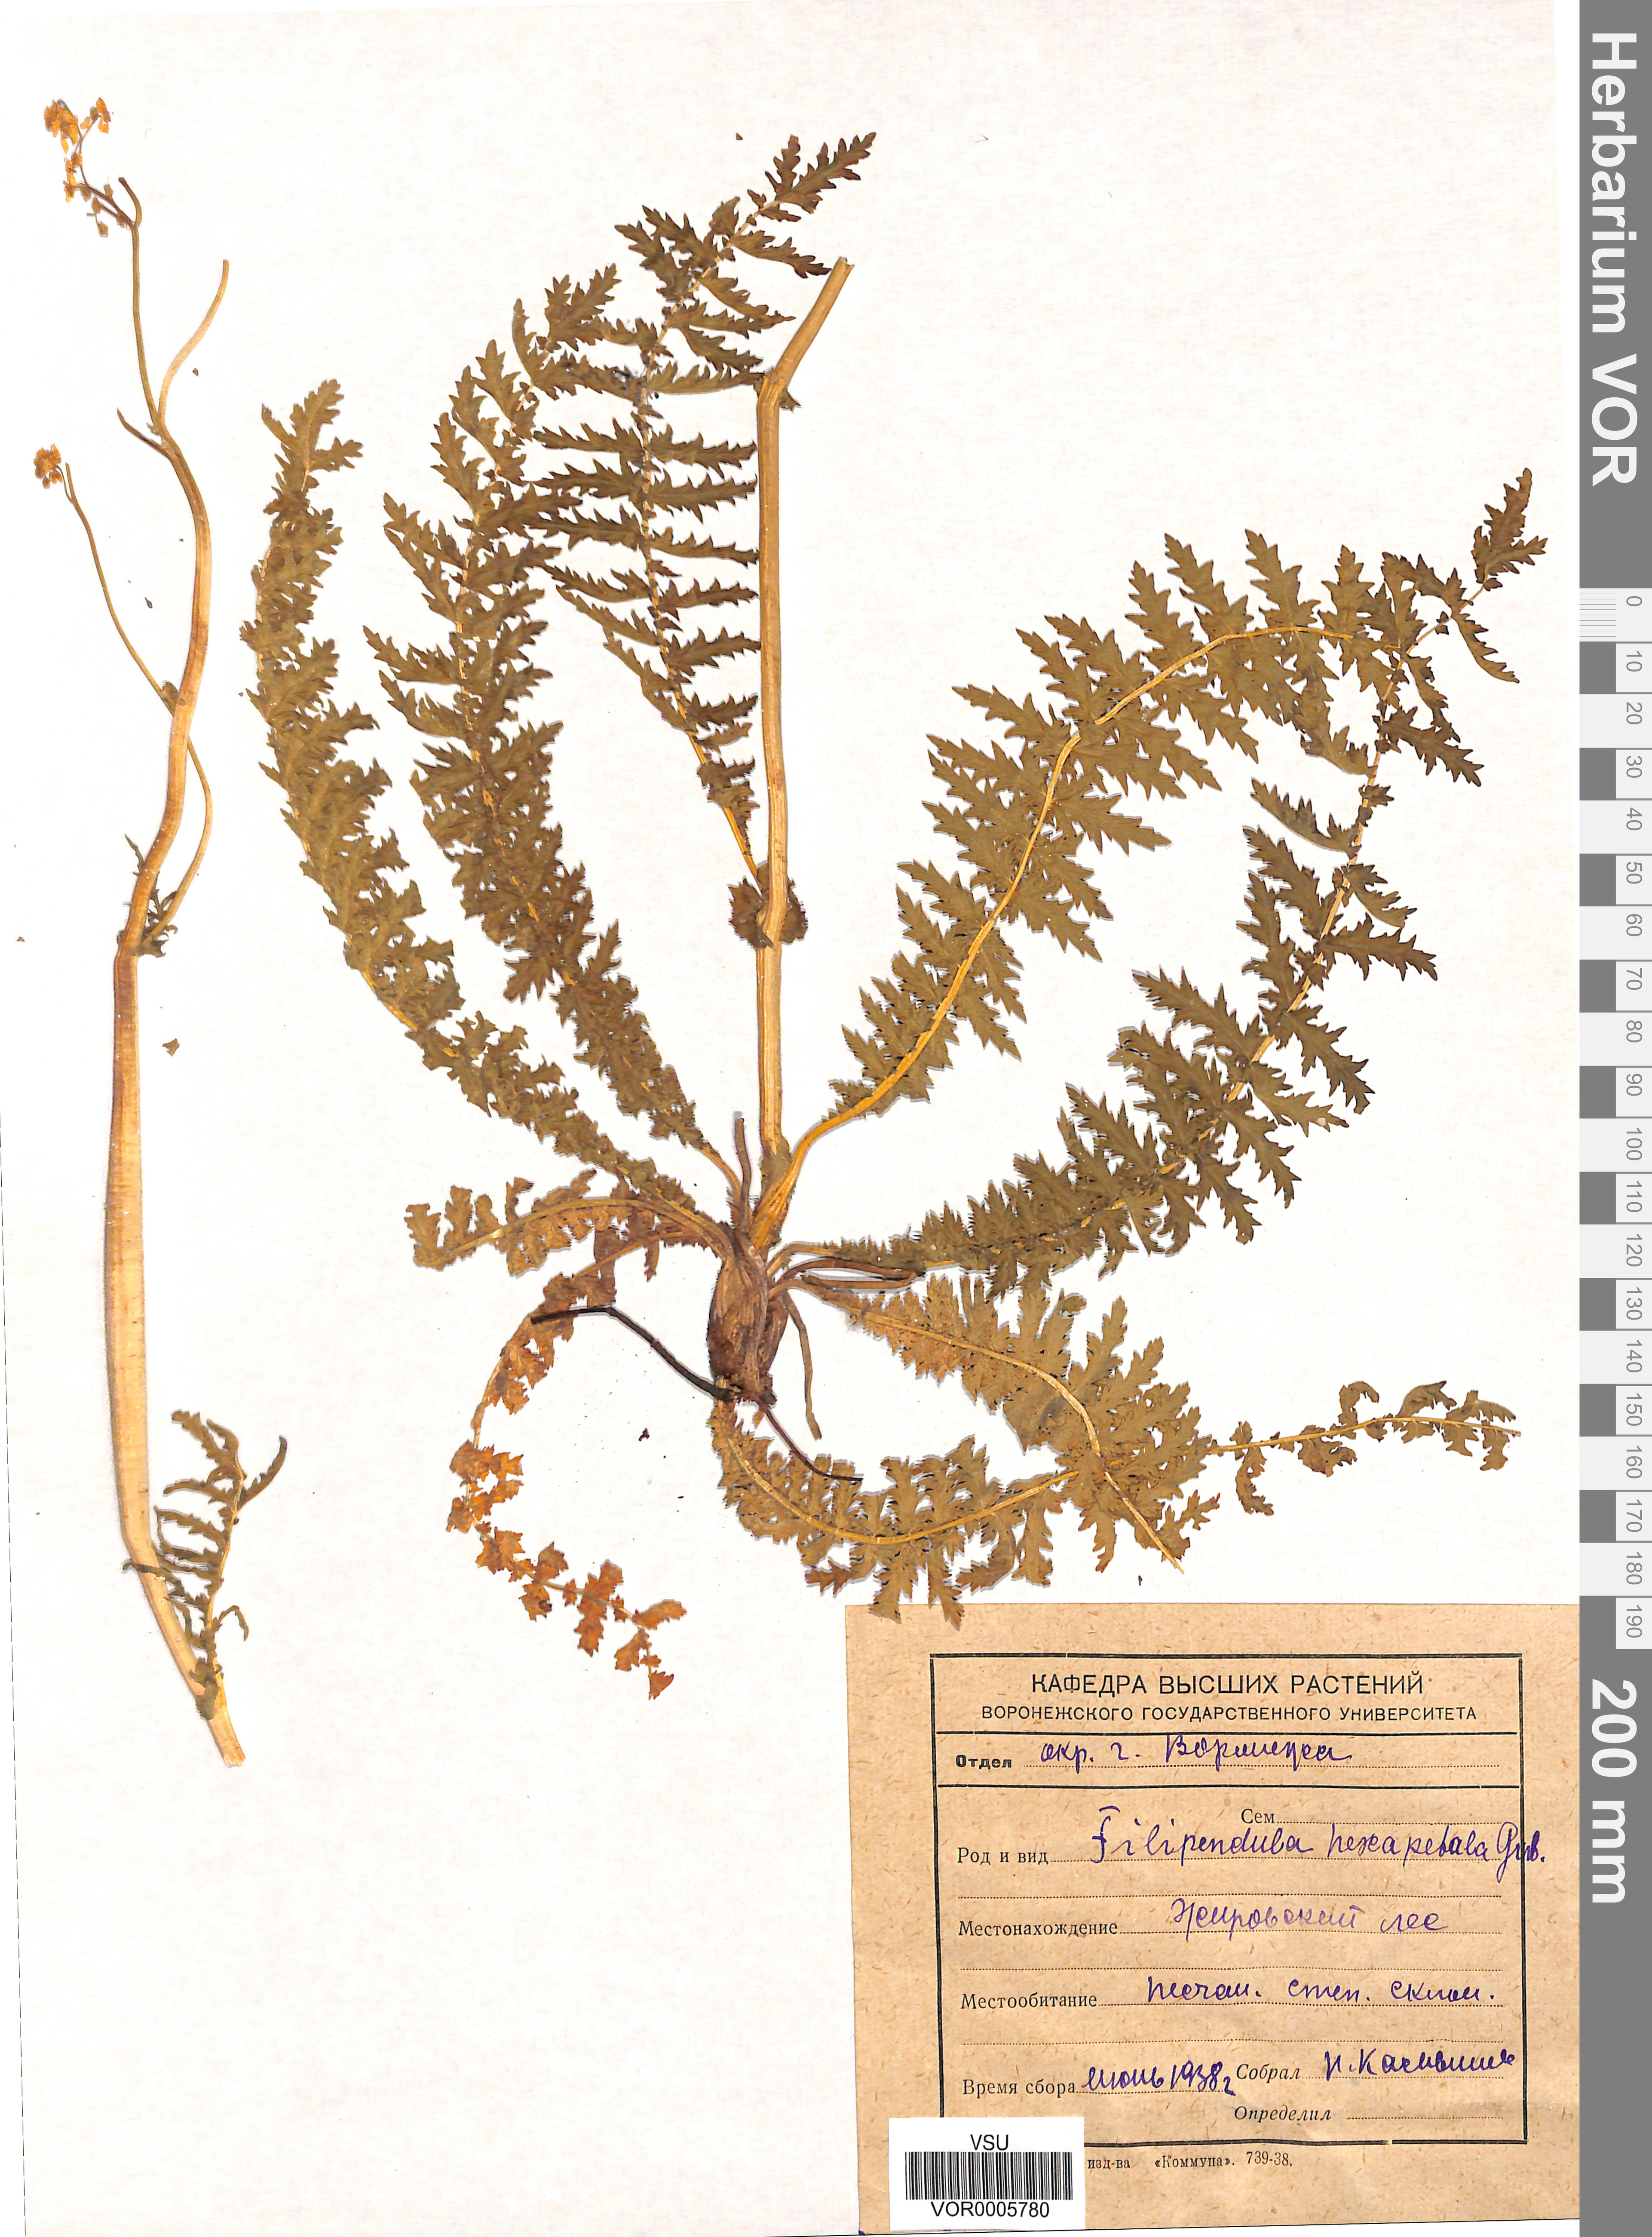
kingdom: Plantae
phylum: Tracheophyta
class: Magnoliopsida
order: Rosales
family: Rosaceae
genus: Filipendula
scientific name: Filipendula vulgaris
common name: Dropwort
